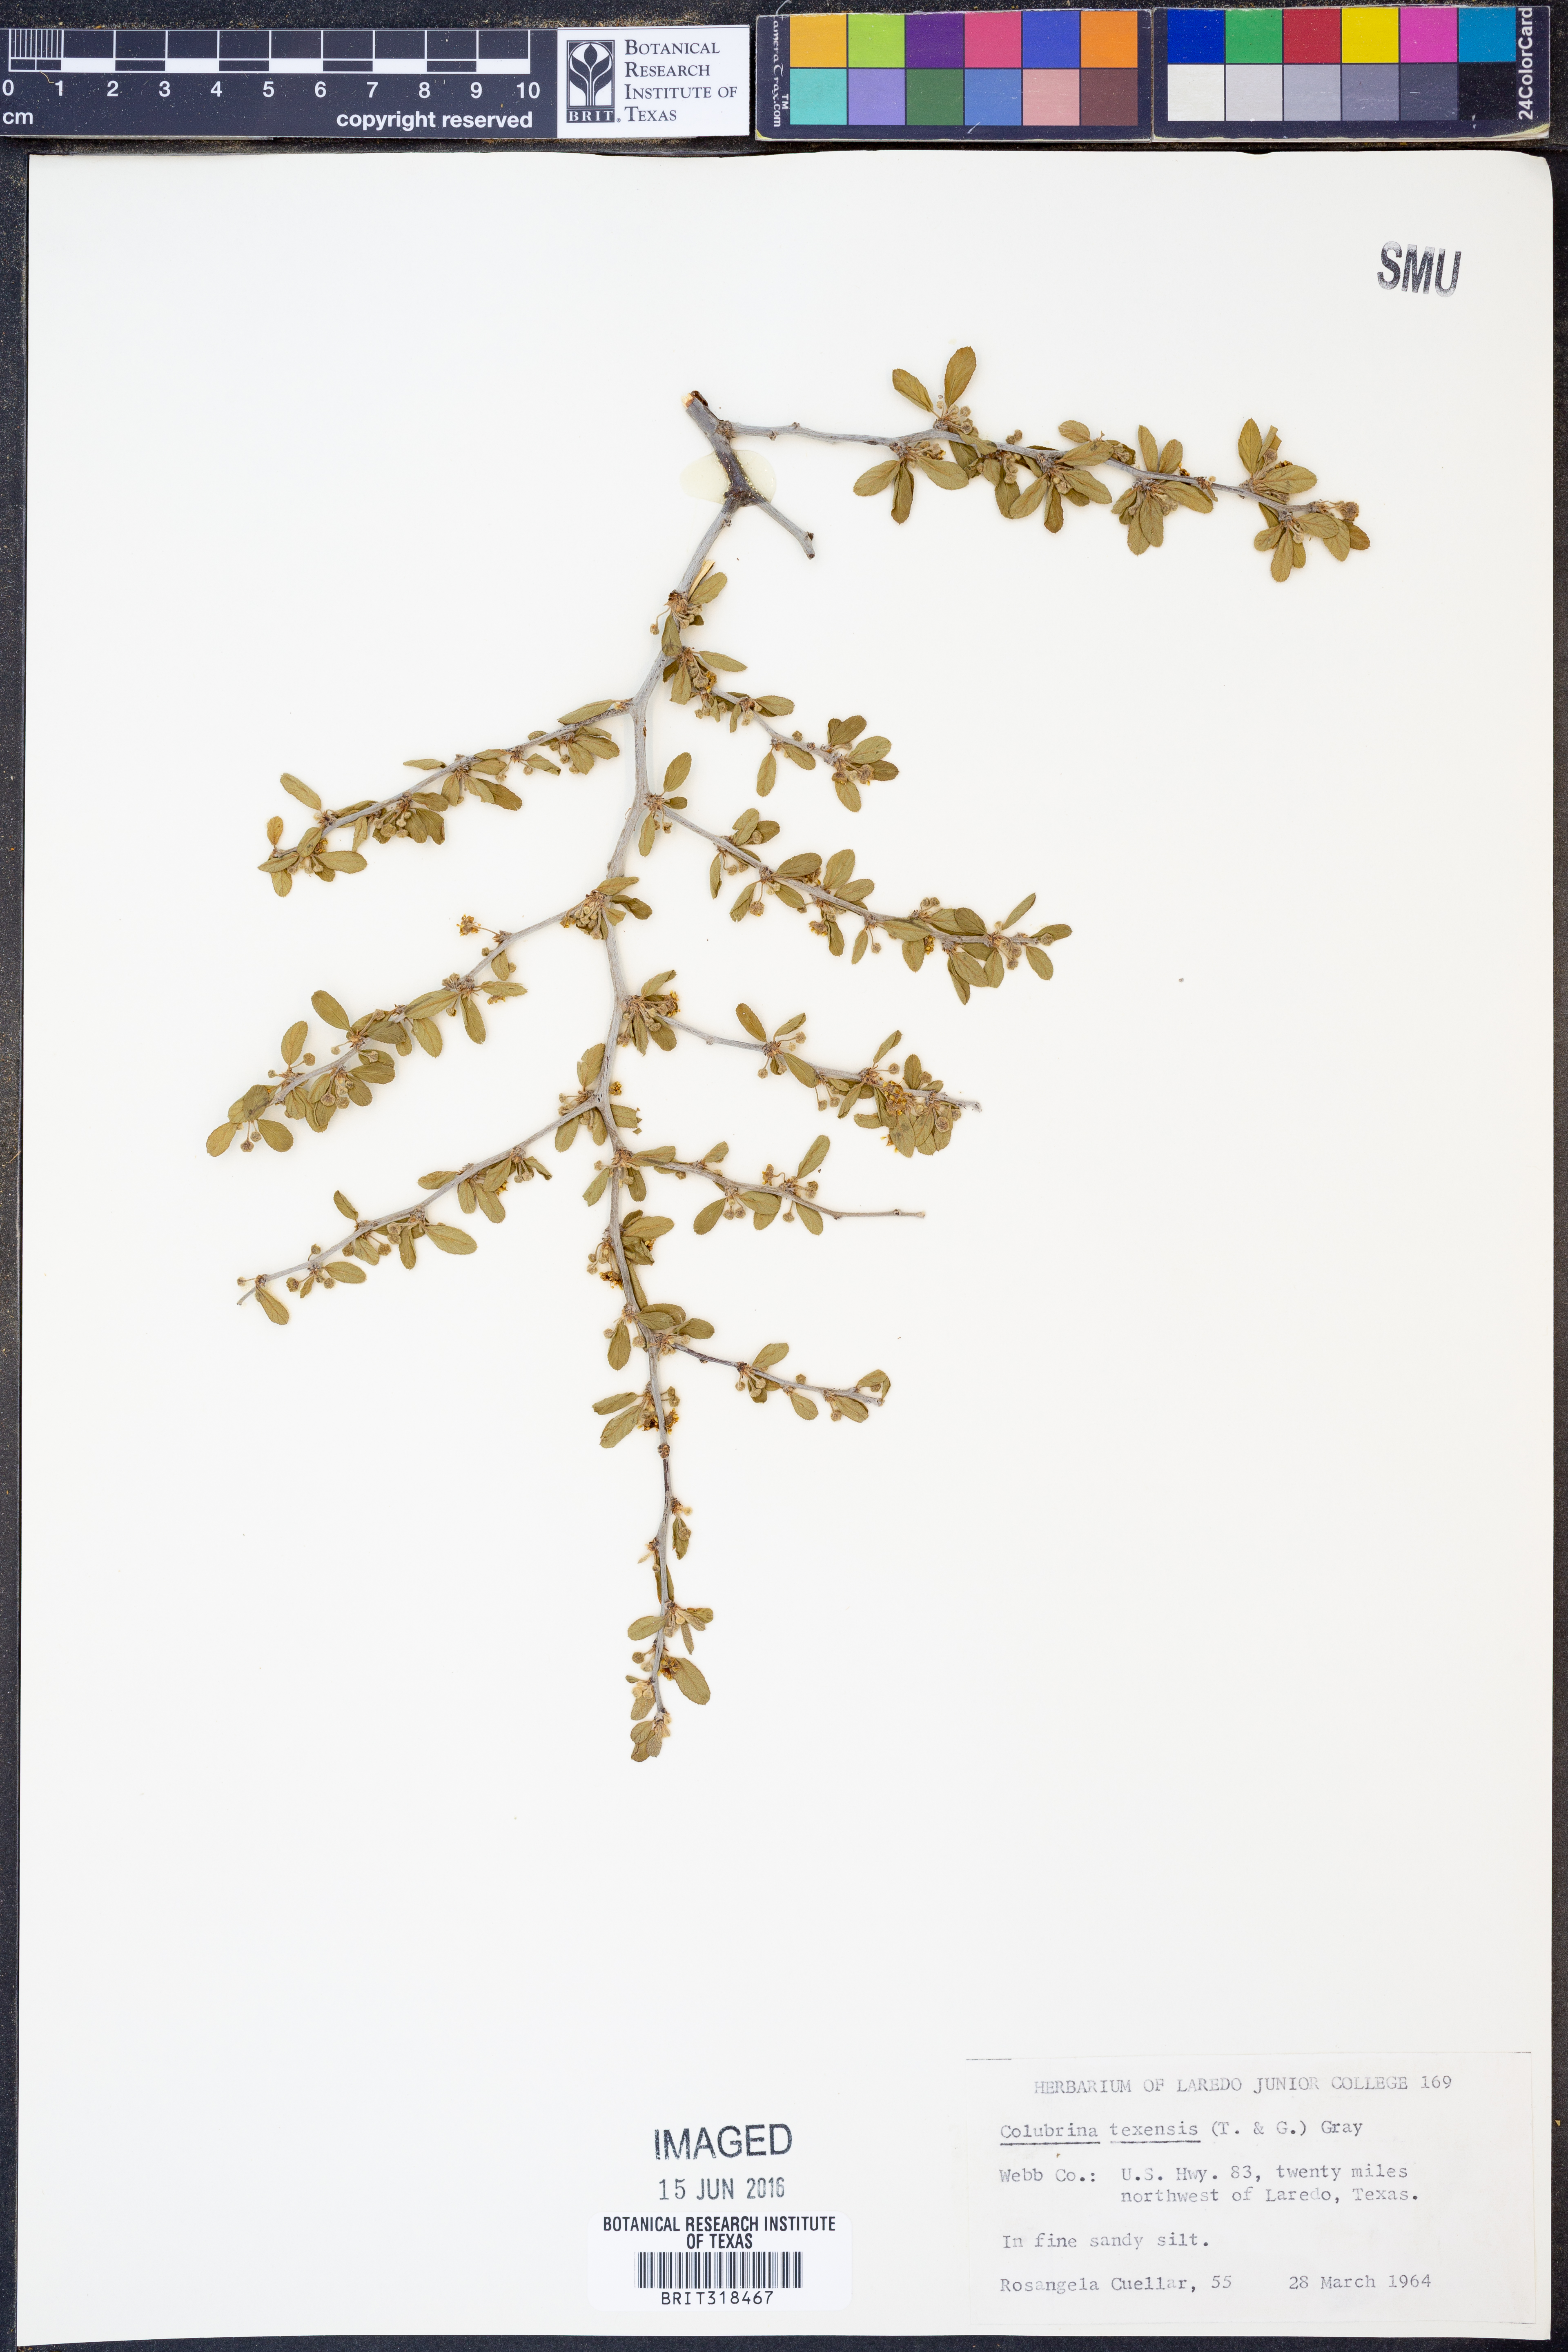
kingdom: Plantae
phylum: Tracheophyta
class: Magnoliopsida
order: Rosales
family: Rhamnaceae
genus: Colubrina
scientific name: Colubrina texensis
